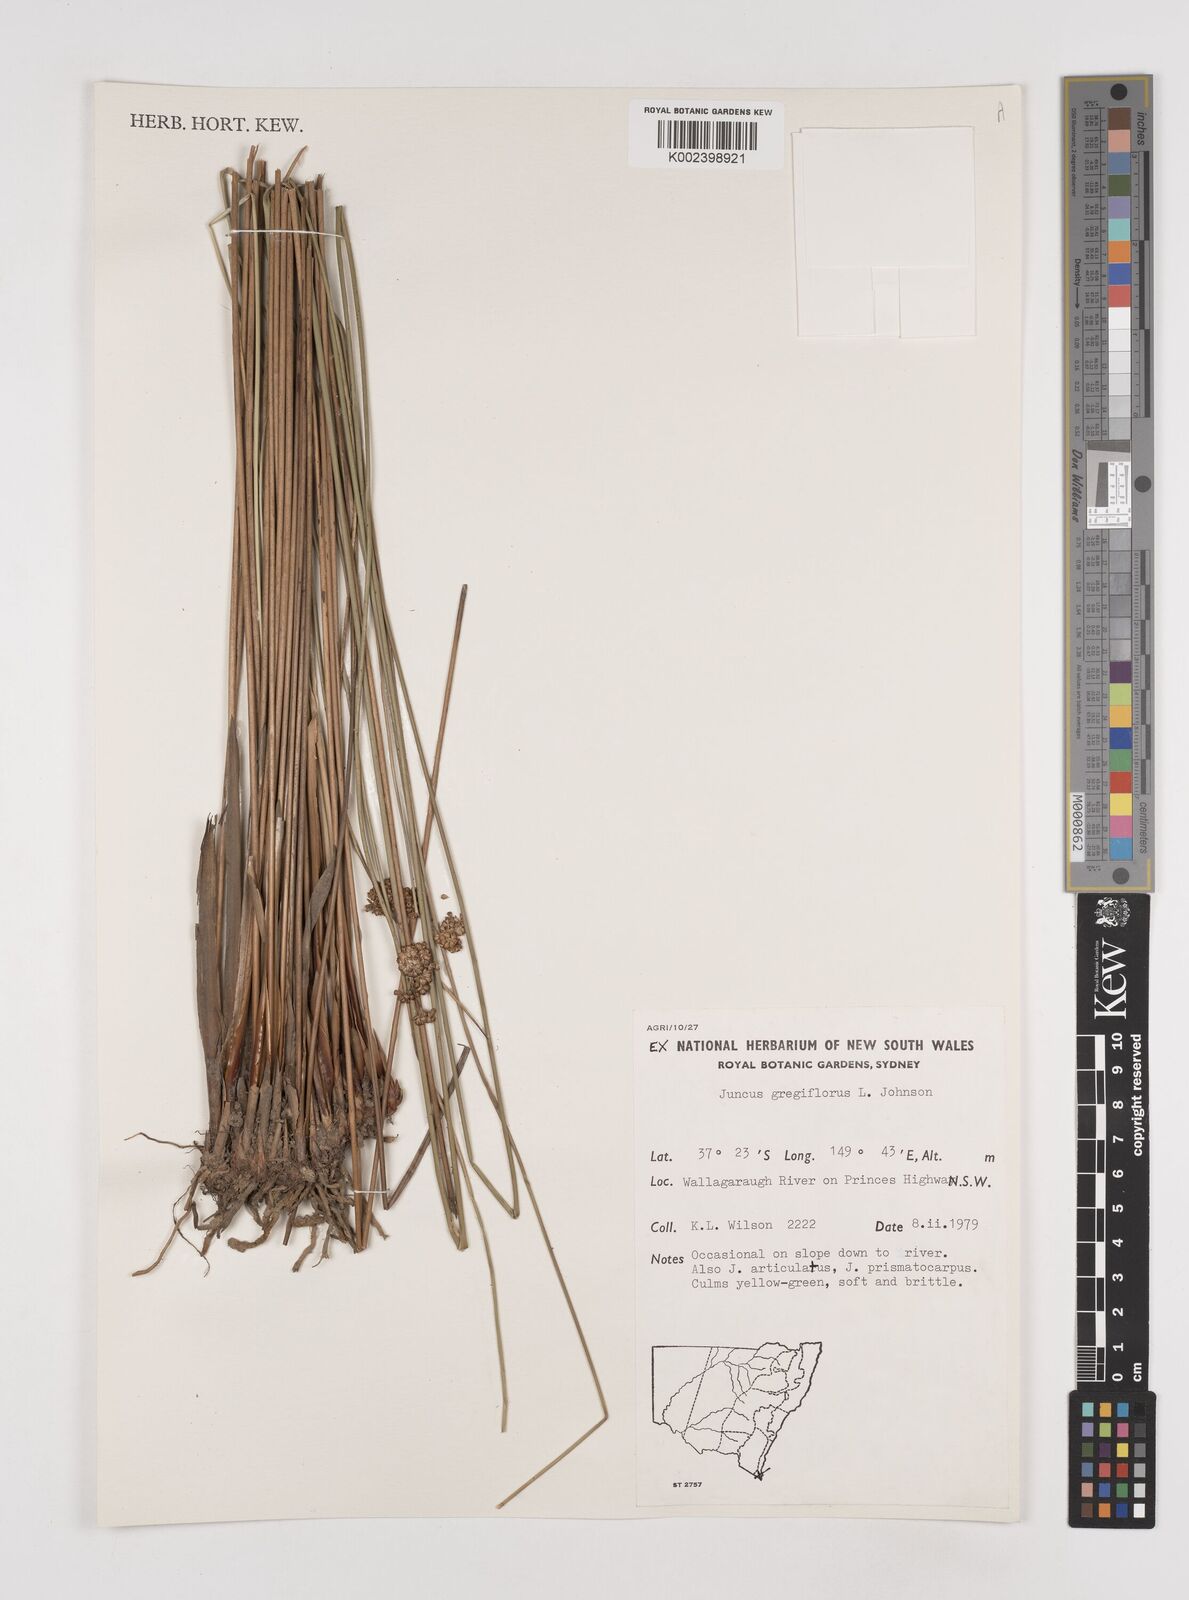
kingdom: Plantae
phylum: Tracheophyta
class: Liliopsida
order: Poales
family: Juncaceae
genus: Juncus
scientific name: Juncus gregiflorus
